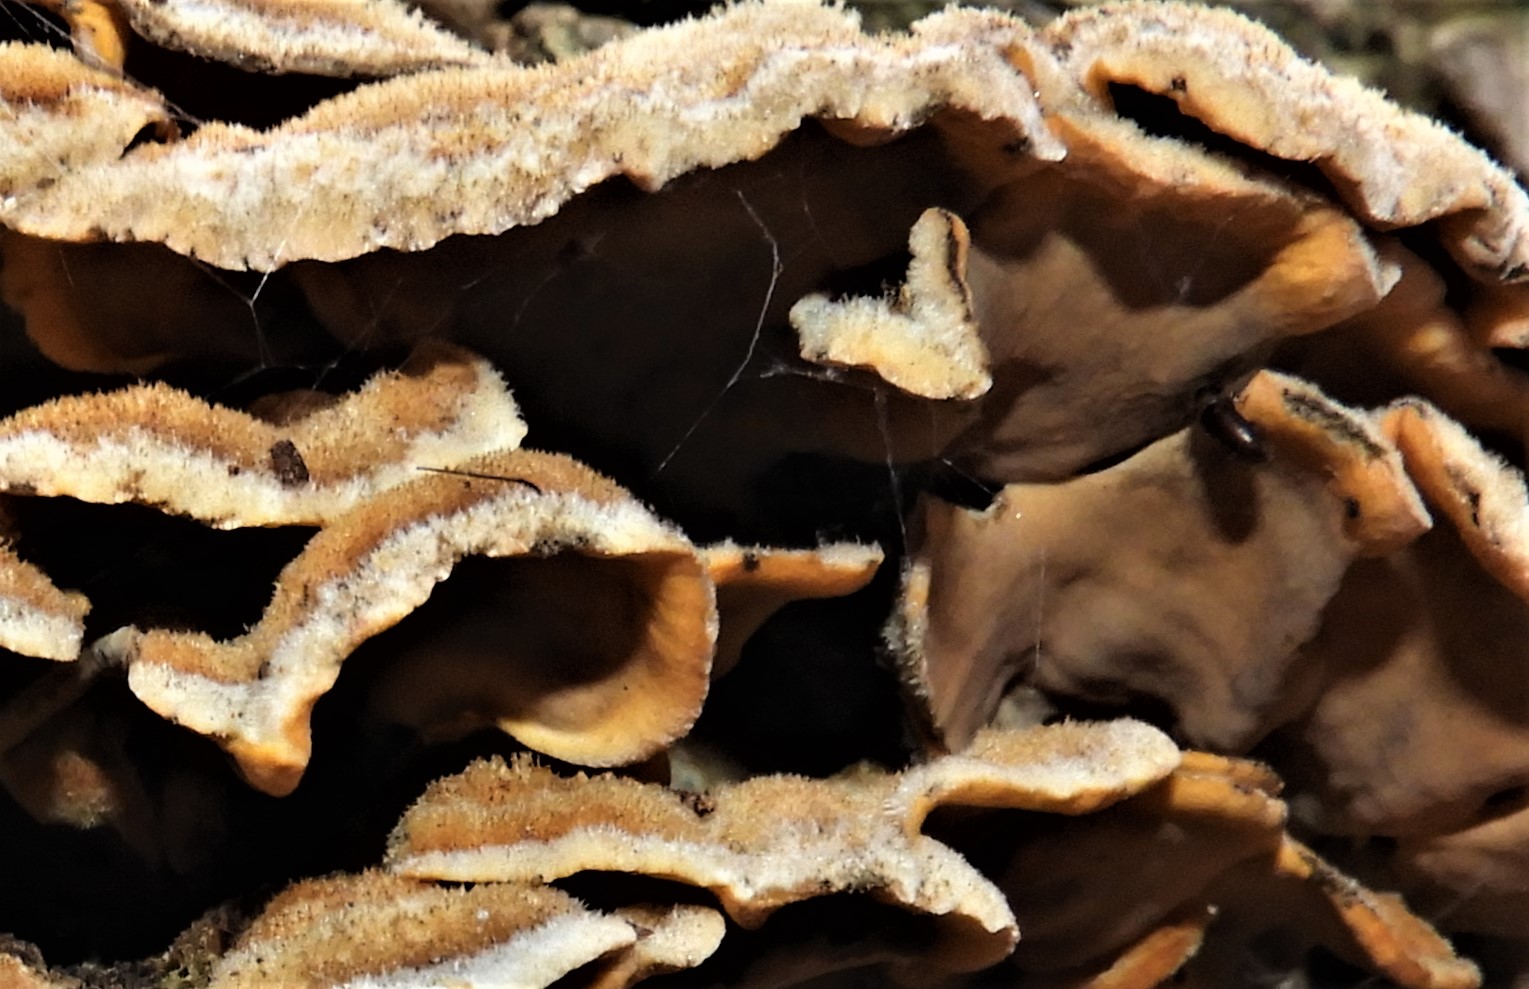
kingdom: Fungi
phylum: Basidiomycota
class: Agaricomycetes
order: Russulales
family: Stereaceae
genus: Stereum
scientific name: Stereum hirsutum
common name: håret lædersvamp
